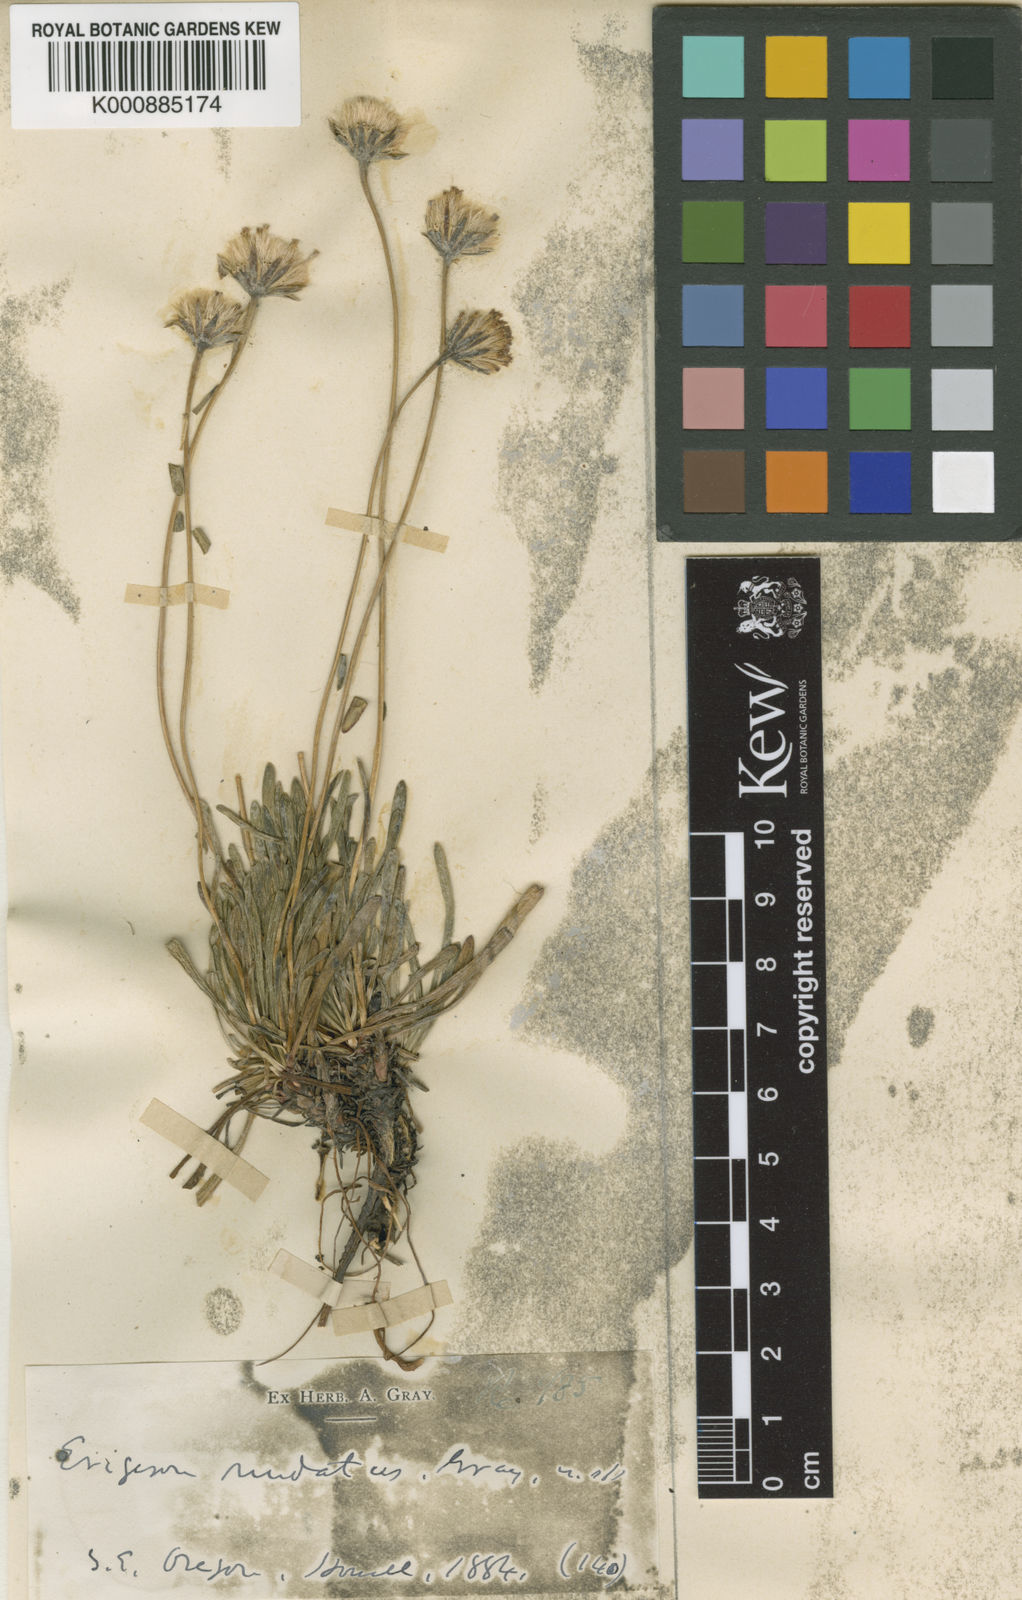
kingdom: Plantae
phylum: Tracheophyta
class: Magnoliopsida
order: Asterales
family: Asteraceae
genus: Erigeron
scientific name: Erigeron
